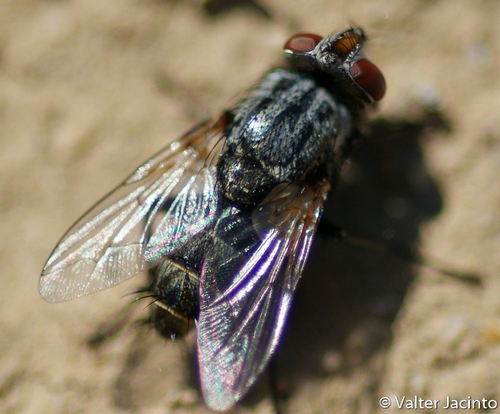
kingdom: Animalia
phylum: Arthropoda
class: Insecta
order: Diptera
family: Sarcophagidae
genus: Protomiltogramma
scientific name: Protomiltogramma fasciata
